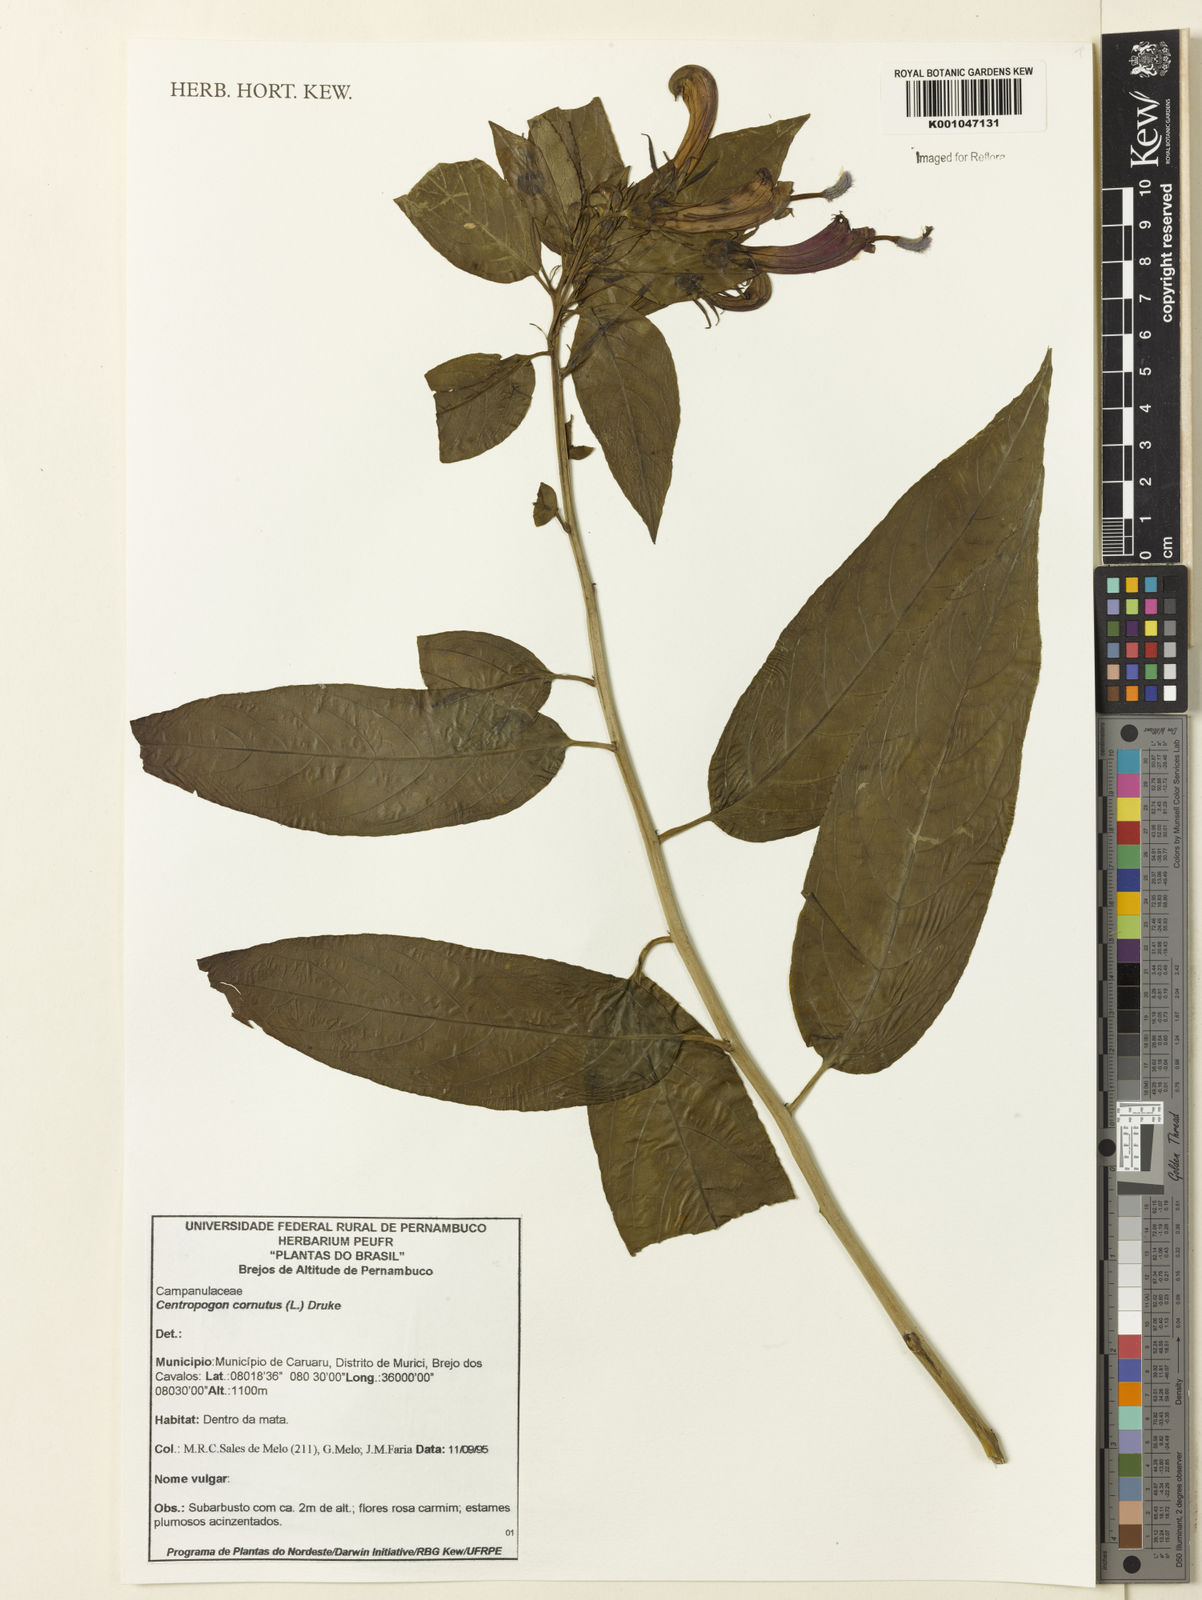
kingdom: Plantae
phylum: Tracheophyta
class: Magnoliopsida
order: Asterales
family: Campanulaceae
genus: Centropogon
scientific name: Centropogon cornutus
